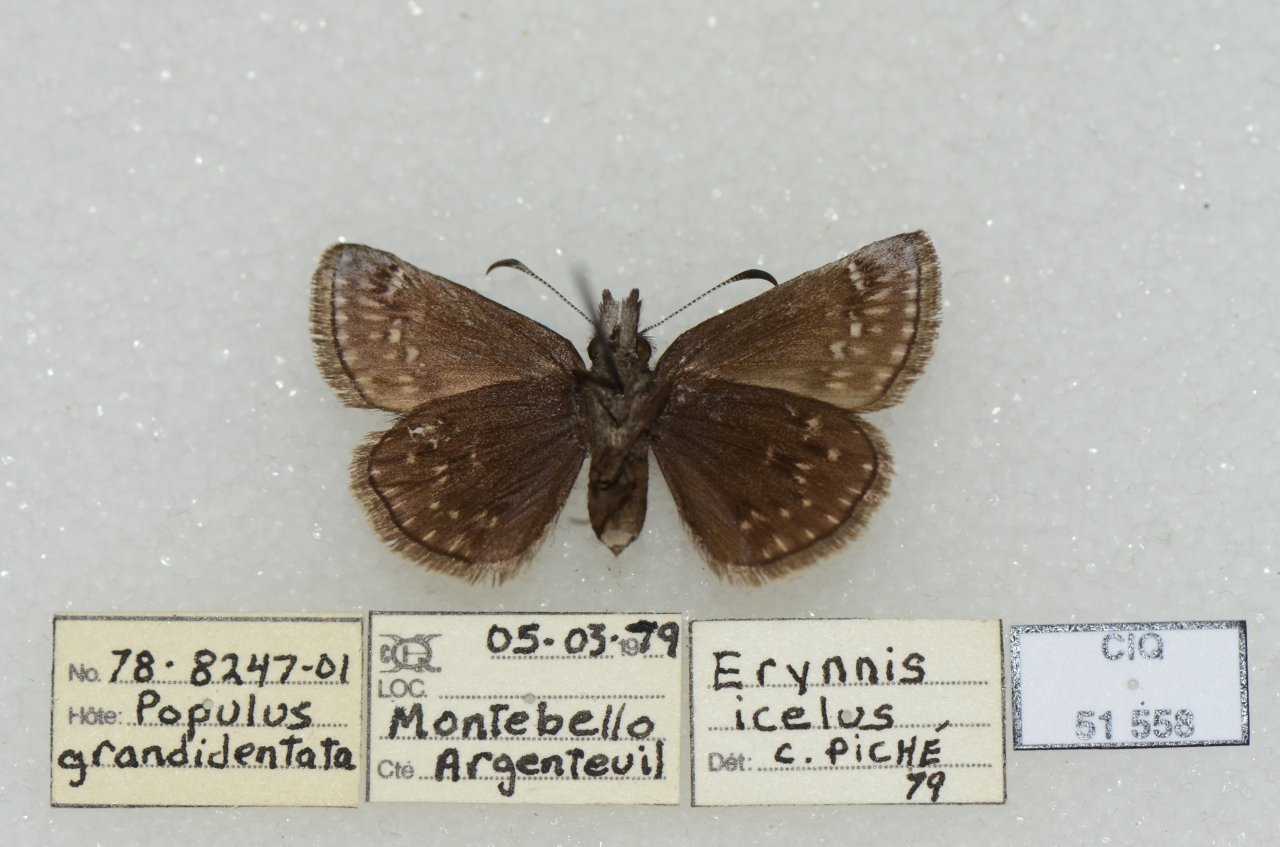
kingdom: Animalia
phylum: Arthropoda
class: Insecta
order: Lepidoptera
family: Hesperiidae
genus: Erynnis
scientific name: Erynnis icelus
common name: Dreamy Duskywing
